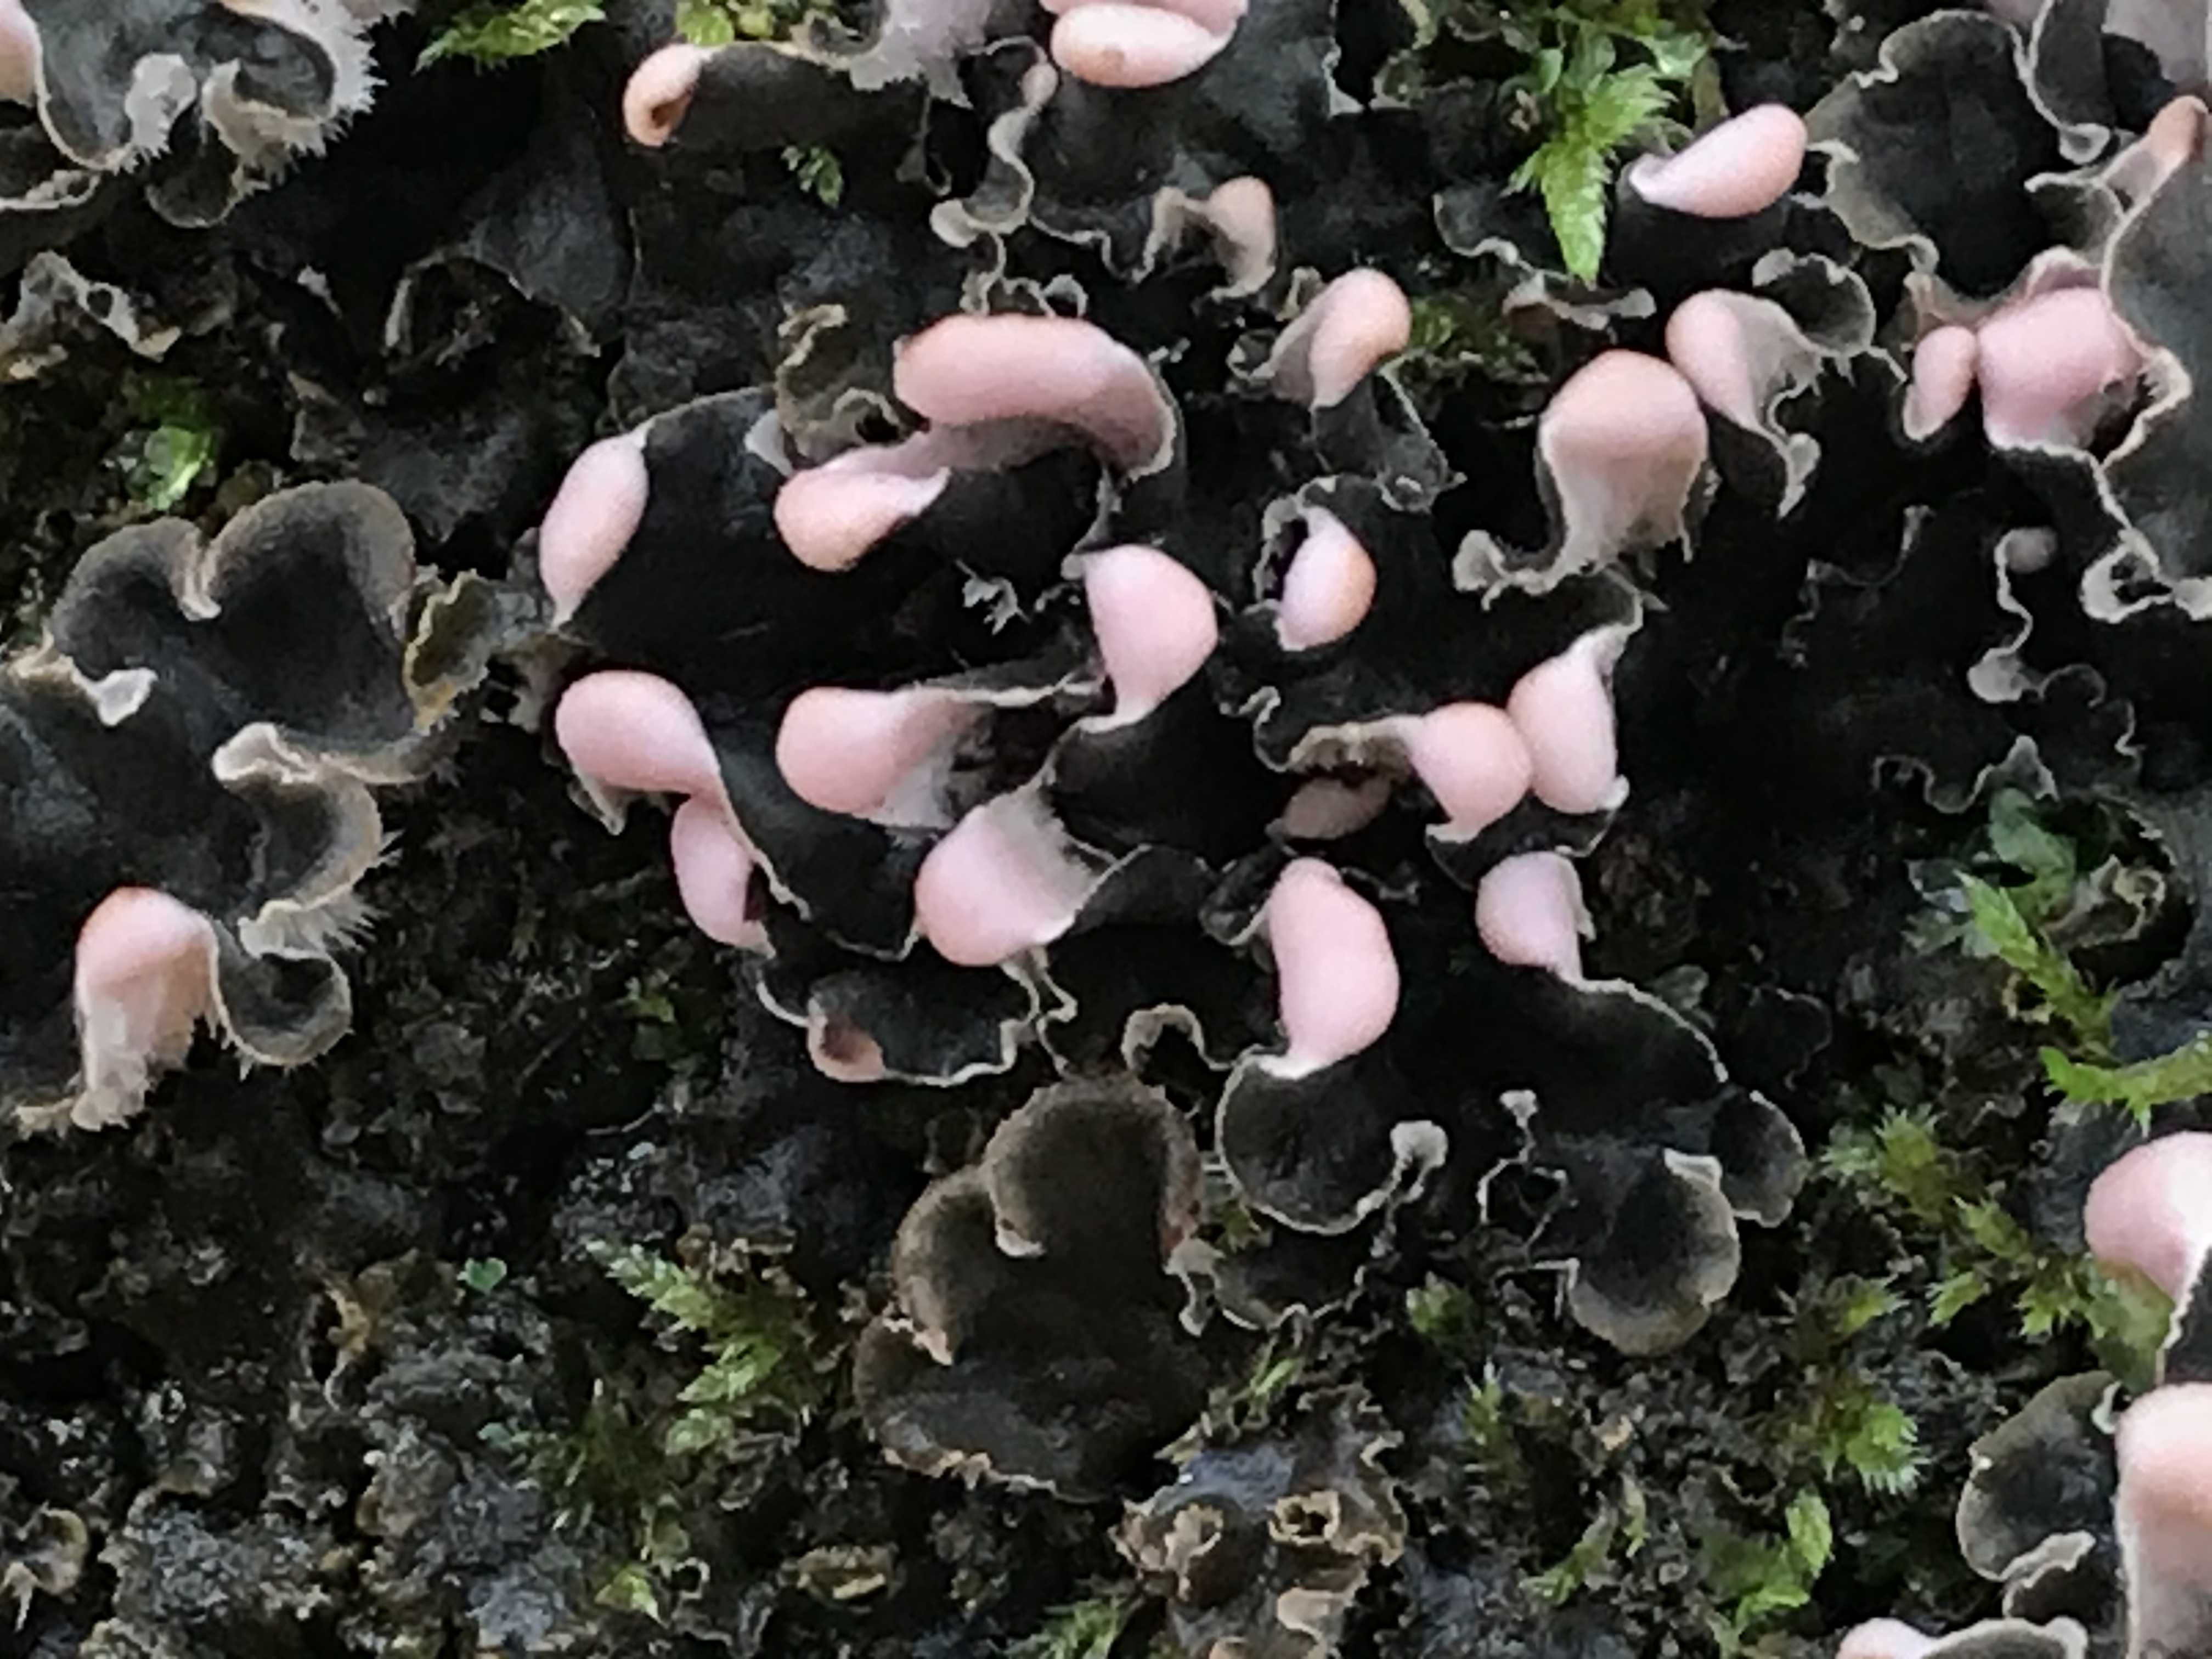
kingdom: Fungi
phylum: Ascomycota
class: Lecanoromycetes
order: Peltigerales
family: Peltigeraceae
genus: Peltigera
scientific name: Peltigera
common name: skjoldlav
